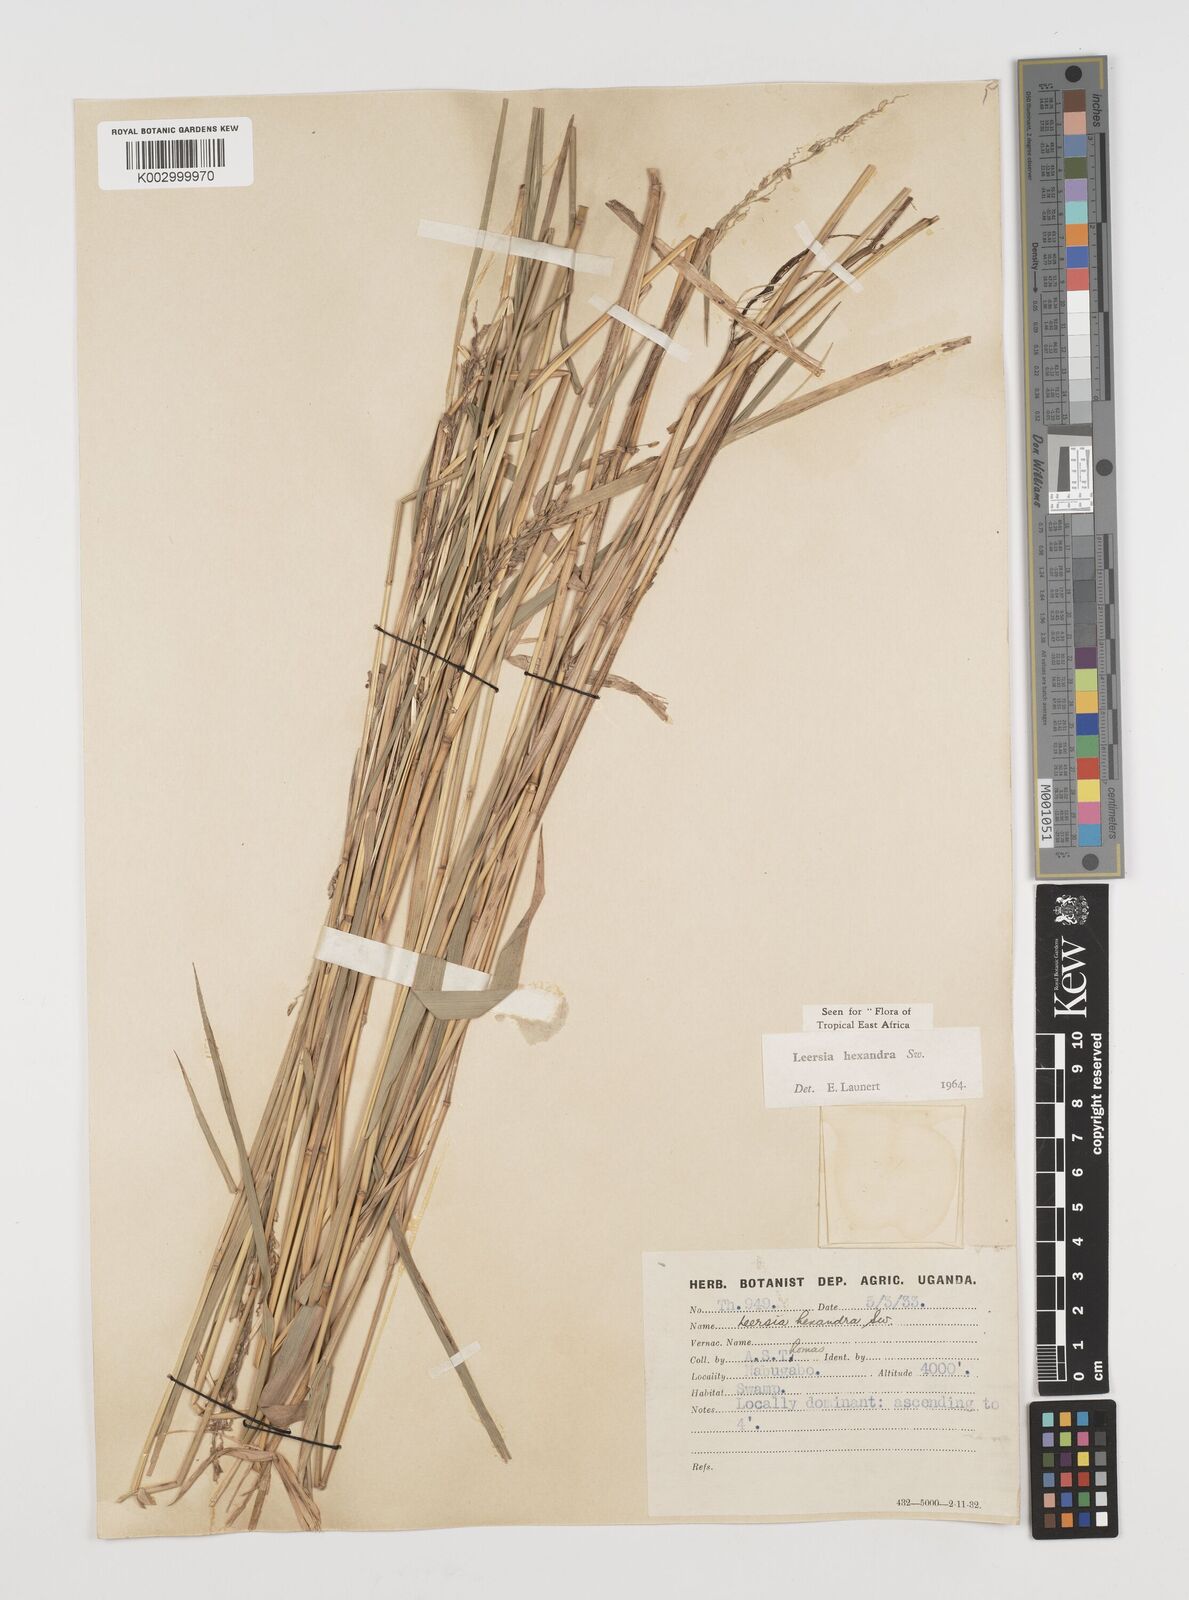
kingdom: Plantae
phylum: Tracheophyta
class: Liliopsida
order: Poales
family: Poaceae
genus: Leersia
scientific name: Leersia hexandra
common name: Southern cut grass
